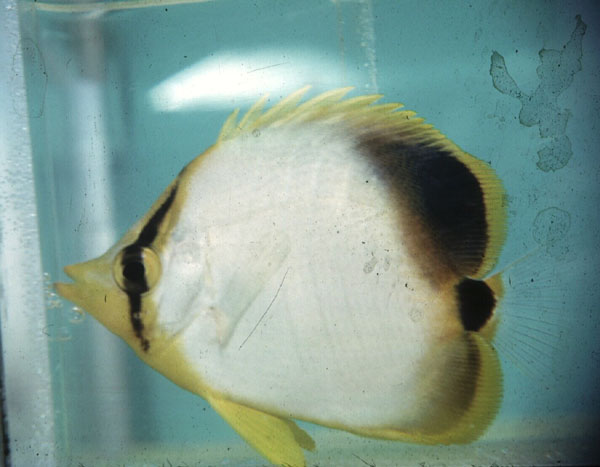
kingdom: Animalia
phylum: Chordata
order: Perciformes
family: Chaetodontidae
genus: Chaetodon
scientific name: Chaetodon xanthocephalus
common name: Yellowhead butterflyfish
